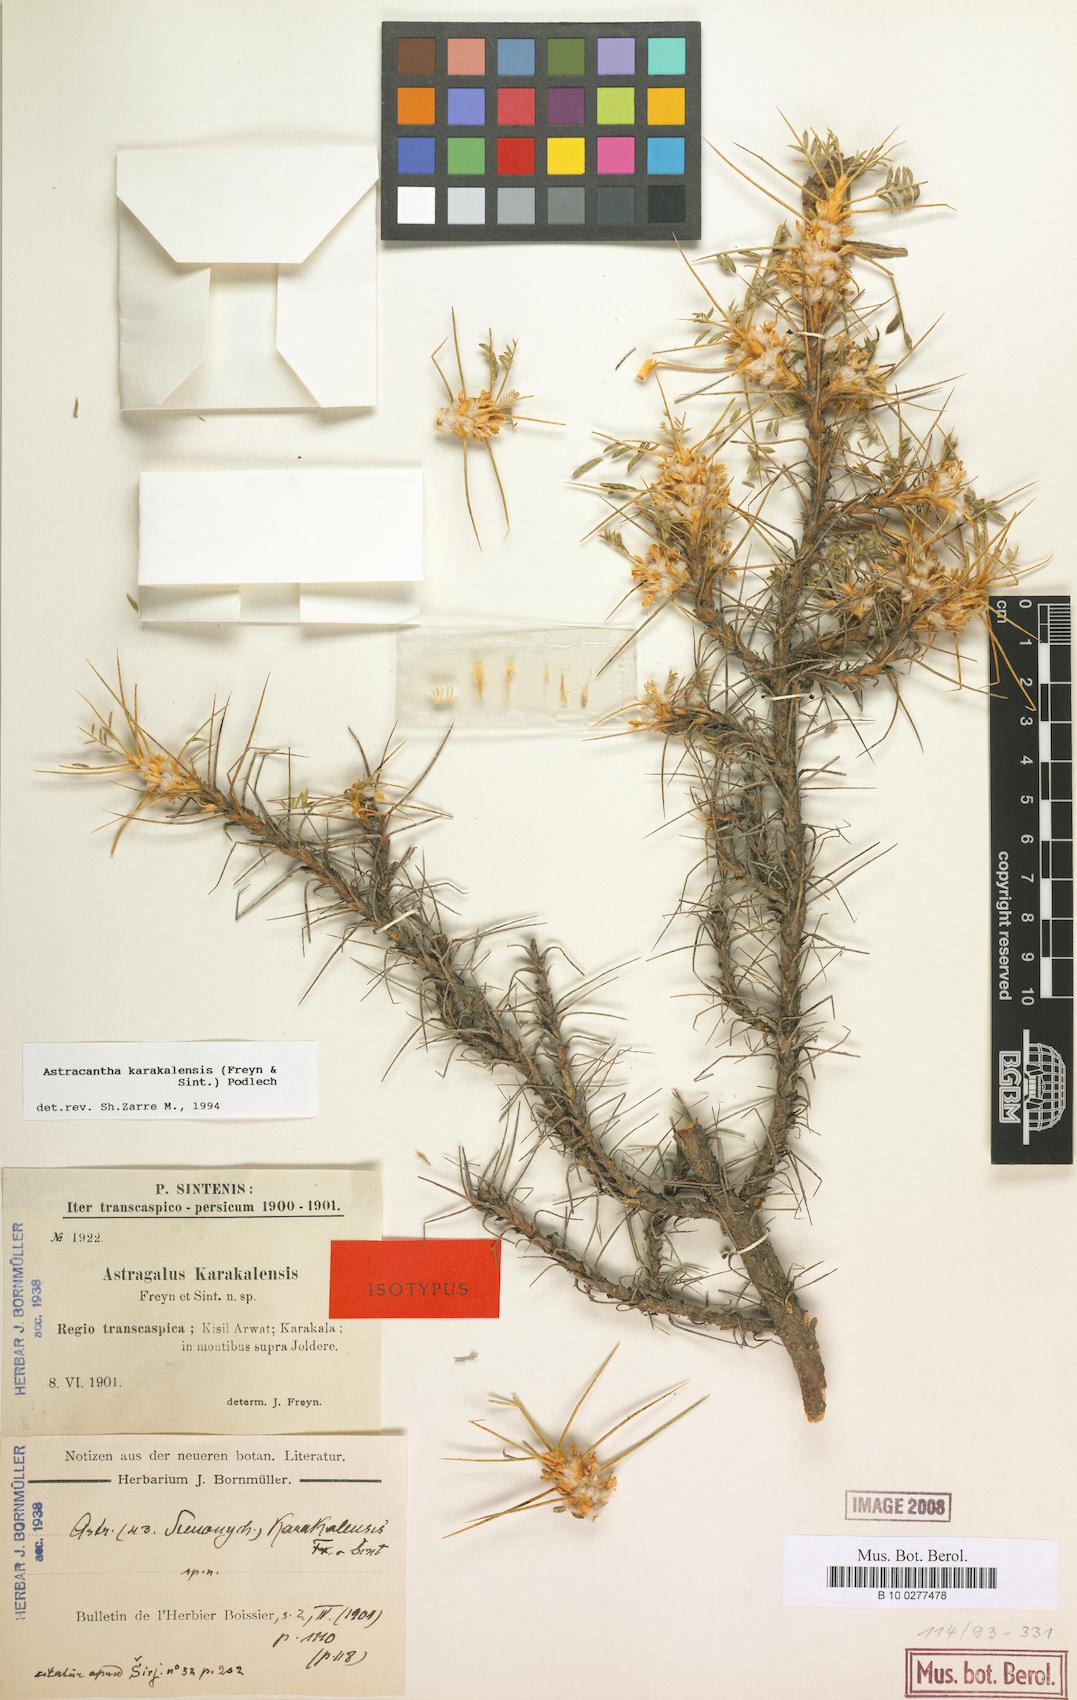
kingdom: Plantae
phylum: Tracheophyta
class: Magnoliopsida
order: Fabales
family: Fabaceae
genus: Astragalus
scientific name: Astragalus karakalensis
